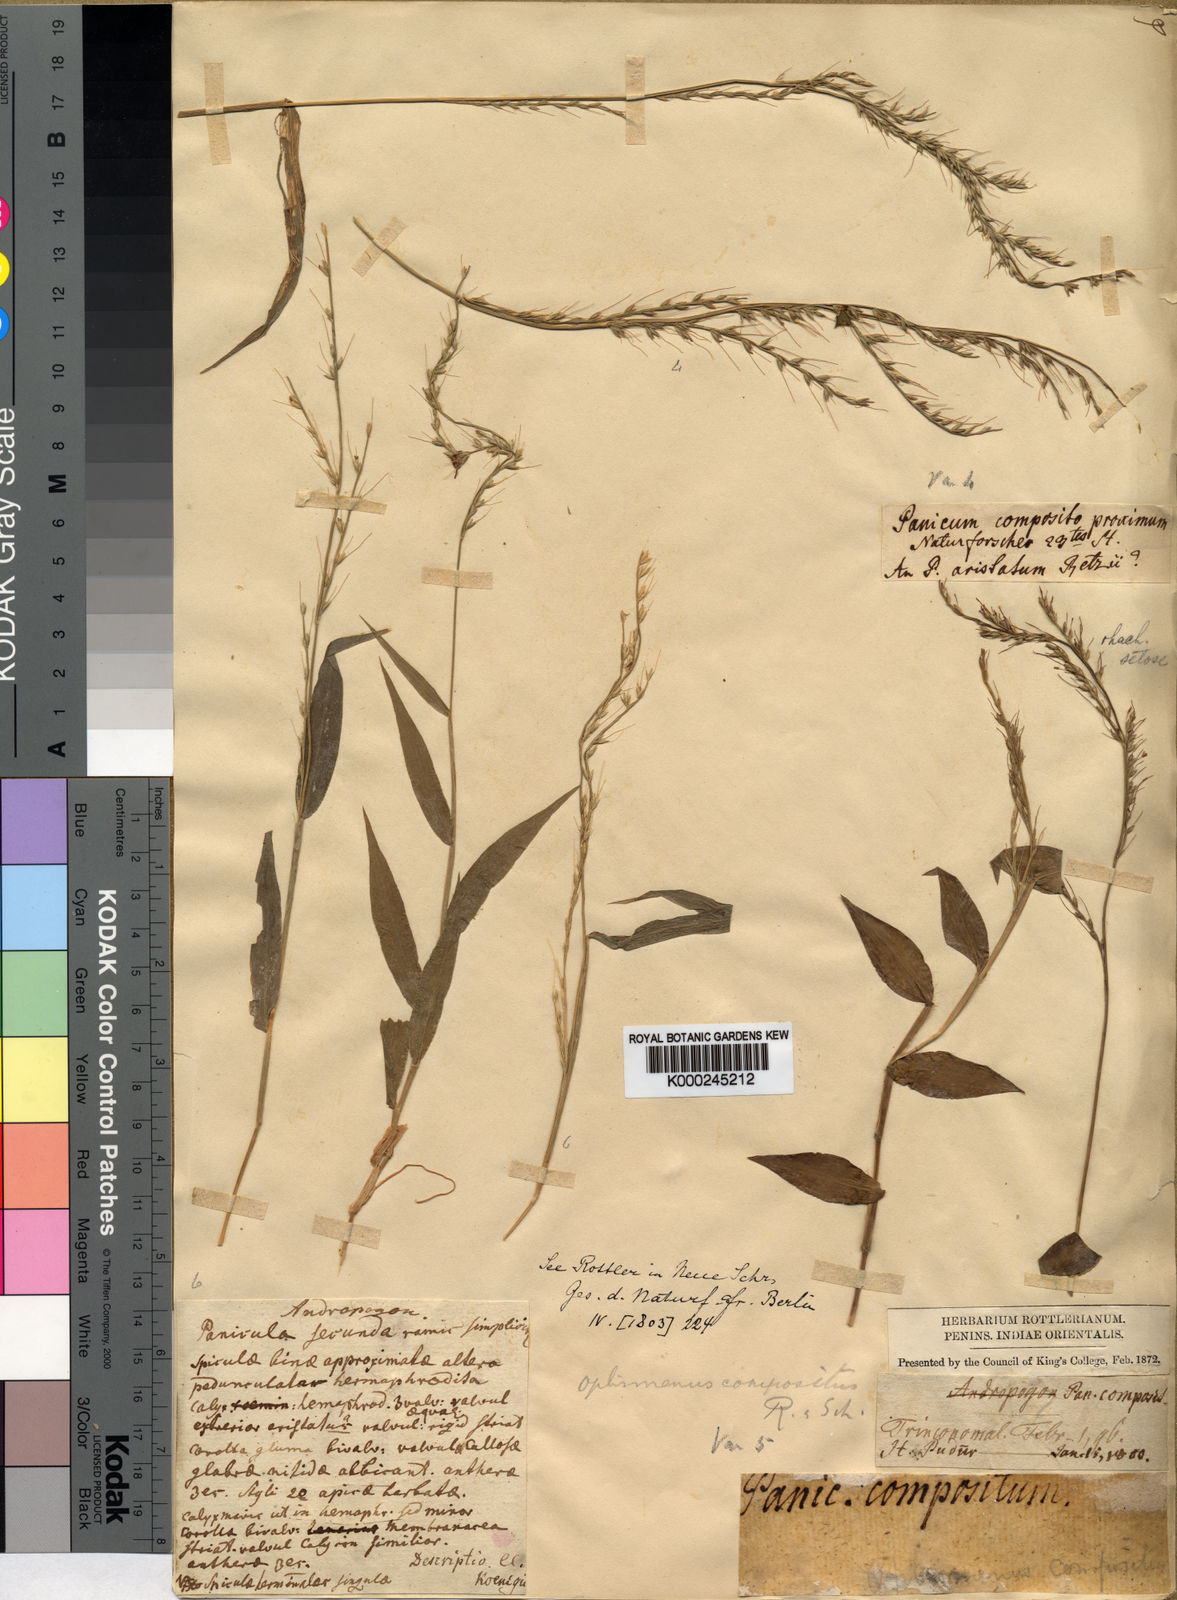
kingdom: Plantae
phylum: Tracheophyta
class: Liliopsida
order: Poales
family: Poaceae
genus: Oplismenus
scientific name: Oplismenus compositus
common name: Running mountain grass
